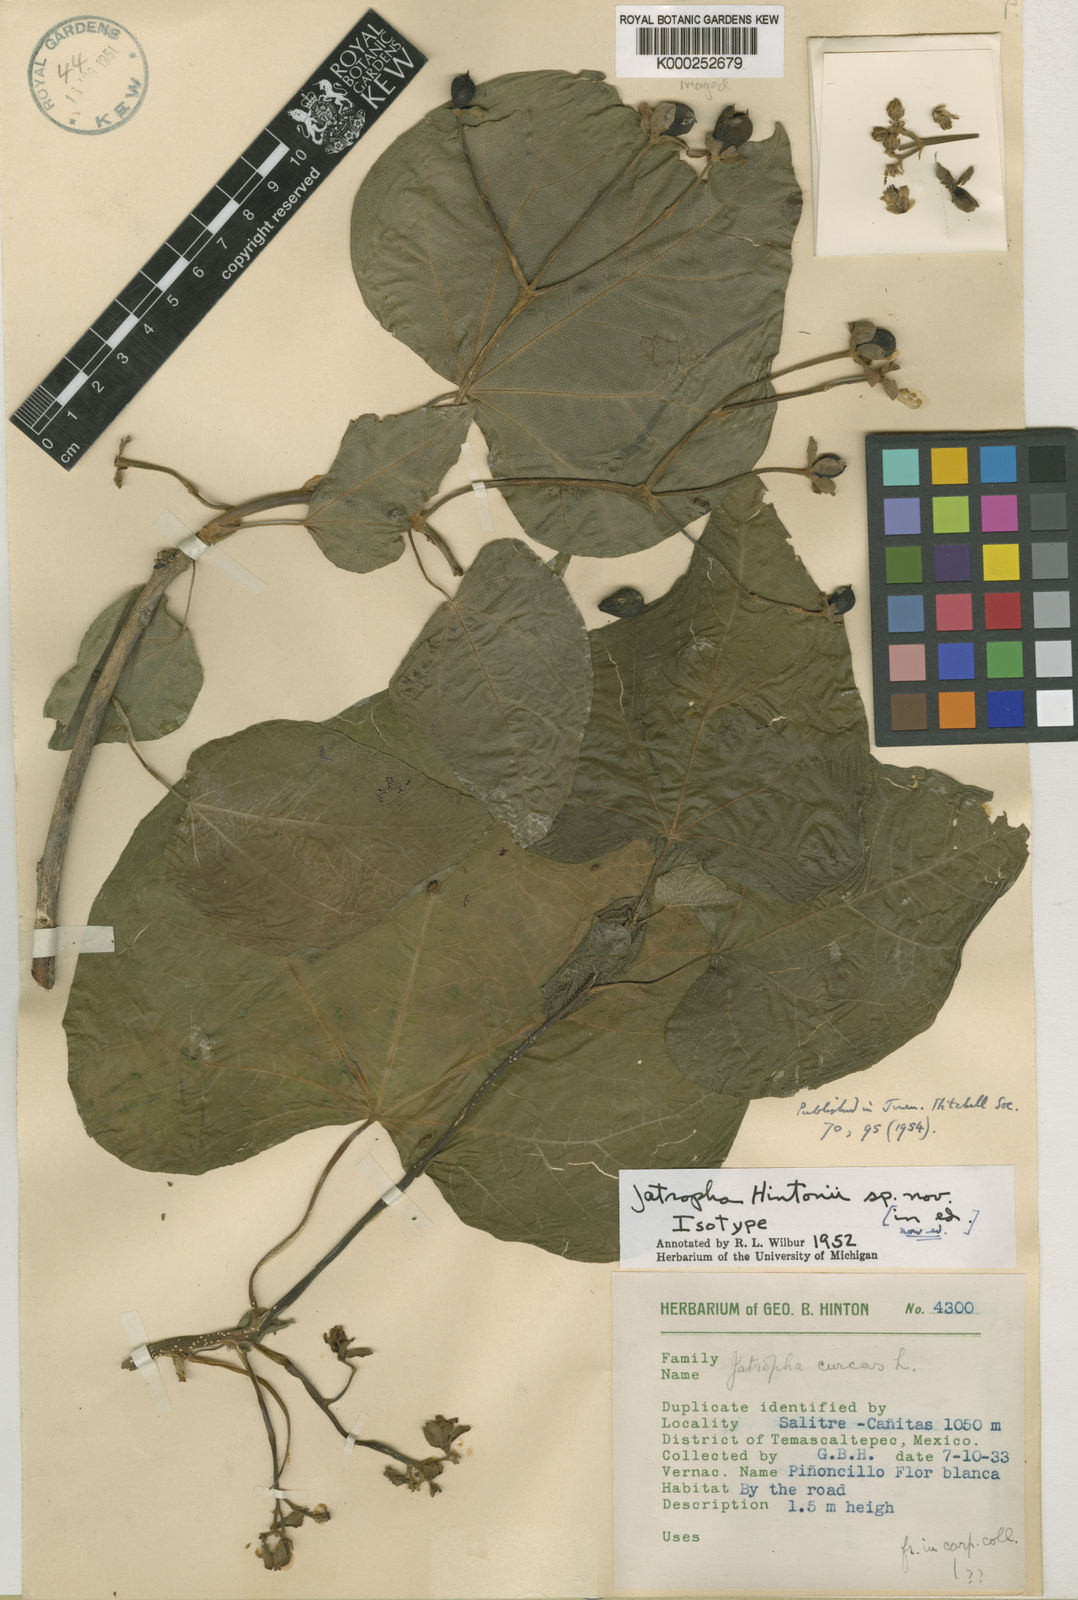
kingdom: Plantae
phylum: Tracheophyta
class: Magnoliopsida
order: Malpighiales
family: Euphorbiaceae
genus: Jatropha
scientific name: Jatropha
